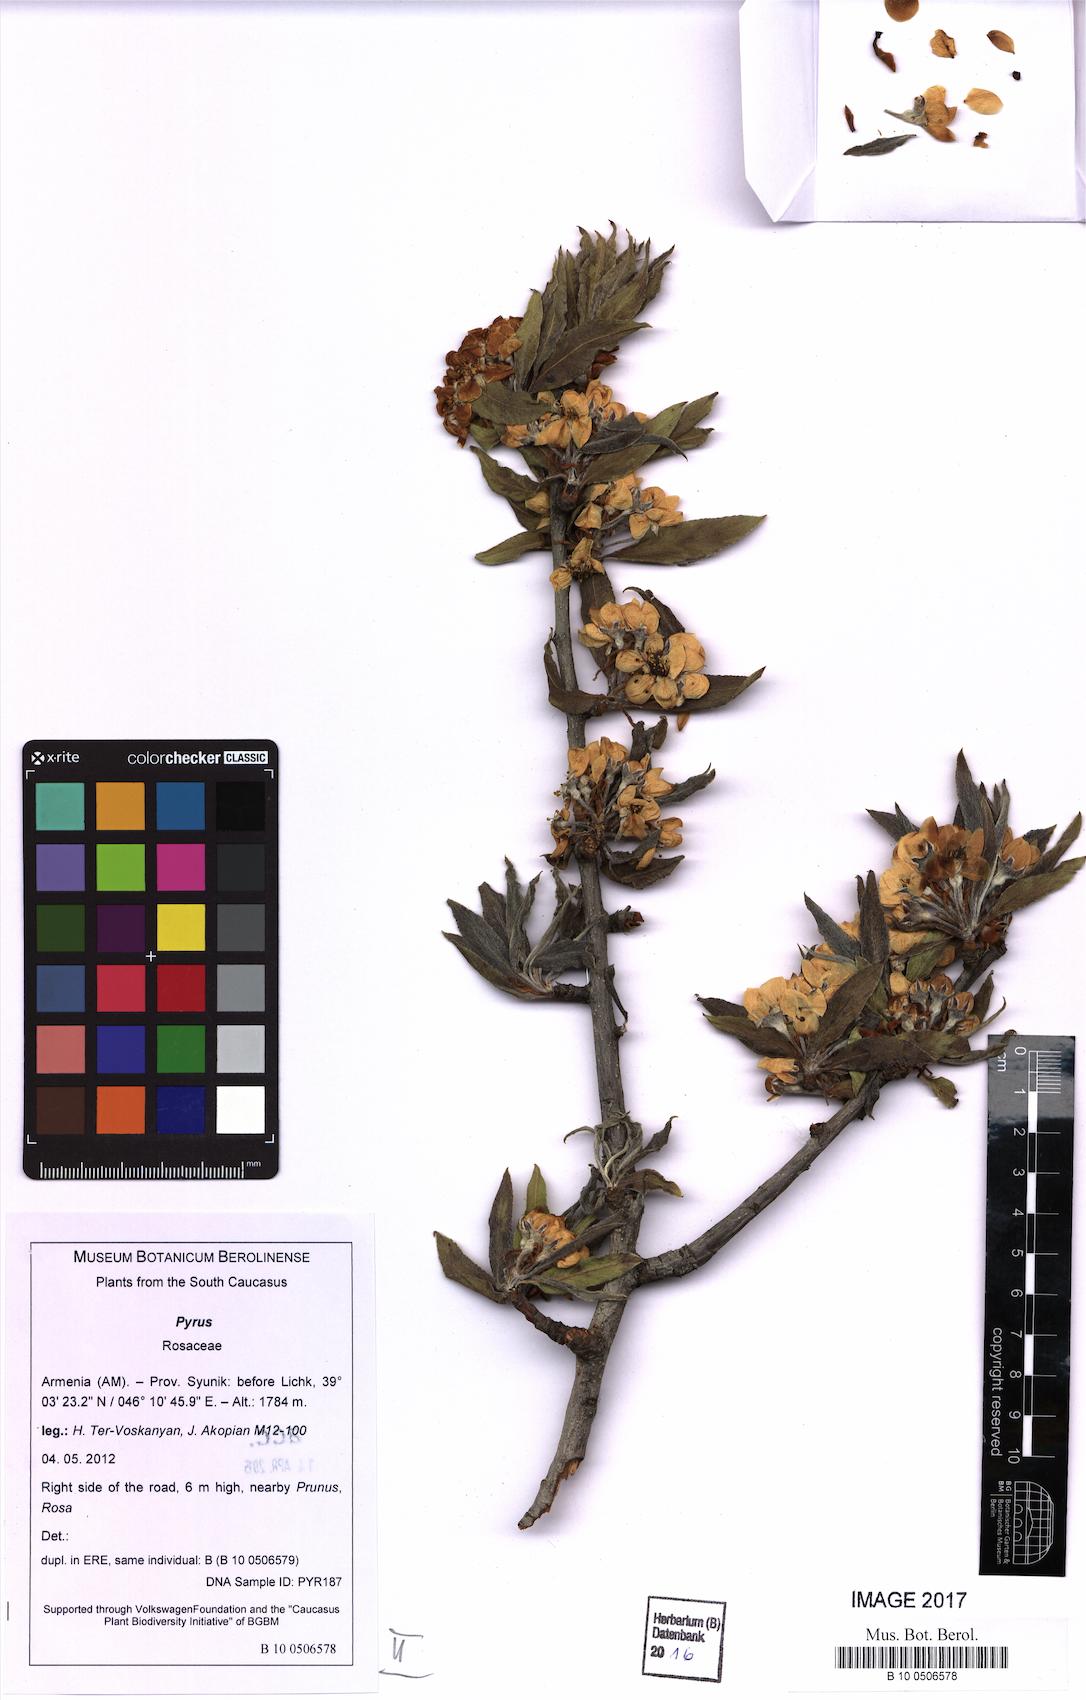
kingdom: Plantae
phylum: Tracheophyta
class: Magnoliopsida
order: Rosales
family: Rosaceae
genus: Pyrus
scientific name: Pyrus zangezura
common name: Zangezurian pear
